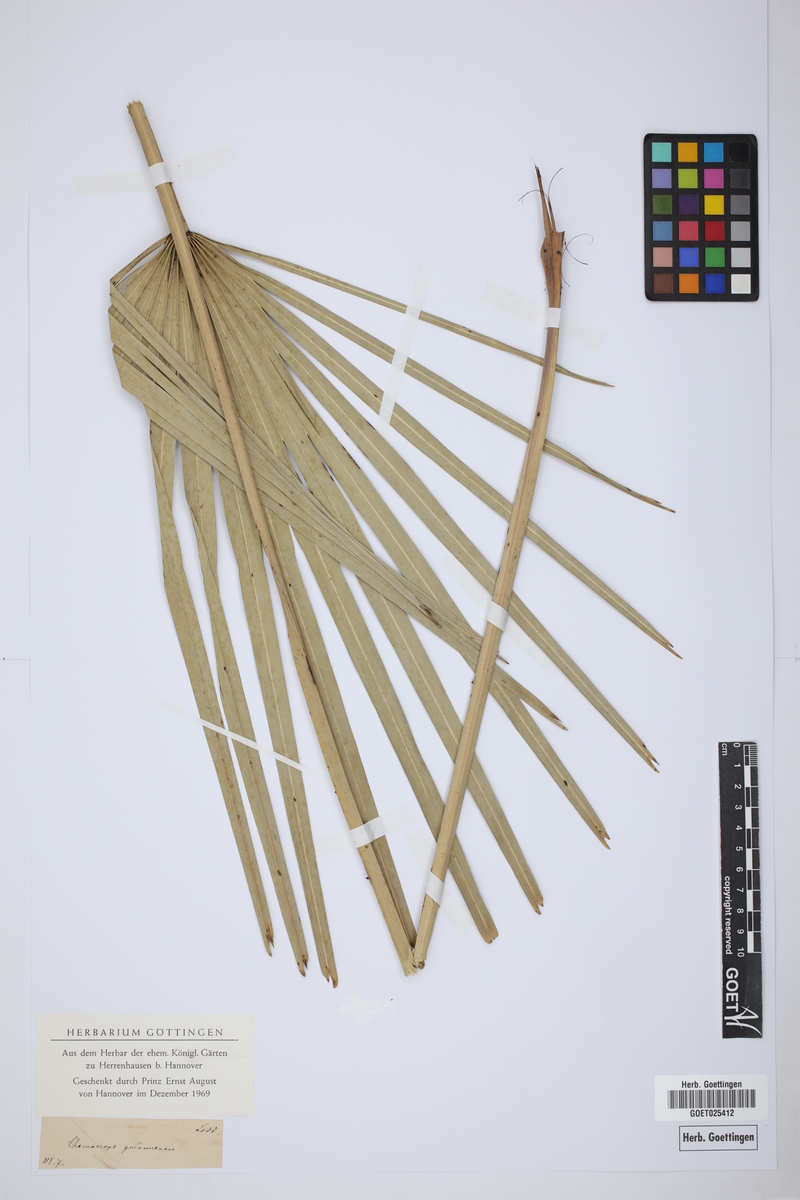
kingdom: Plantae
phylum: Tracheophyta
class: Liliopsida
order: Arecales
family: Arecaceae
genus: Chamaerops
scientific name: Chamaerops guianensis
